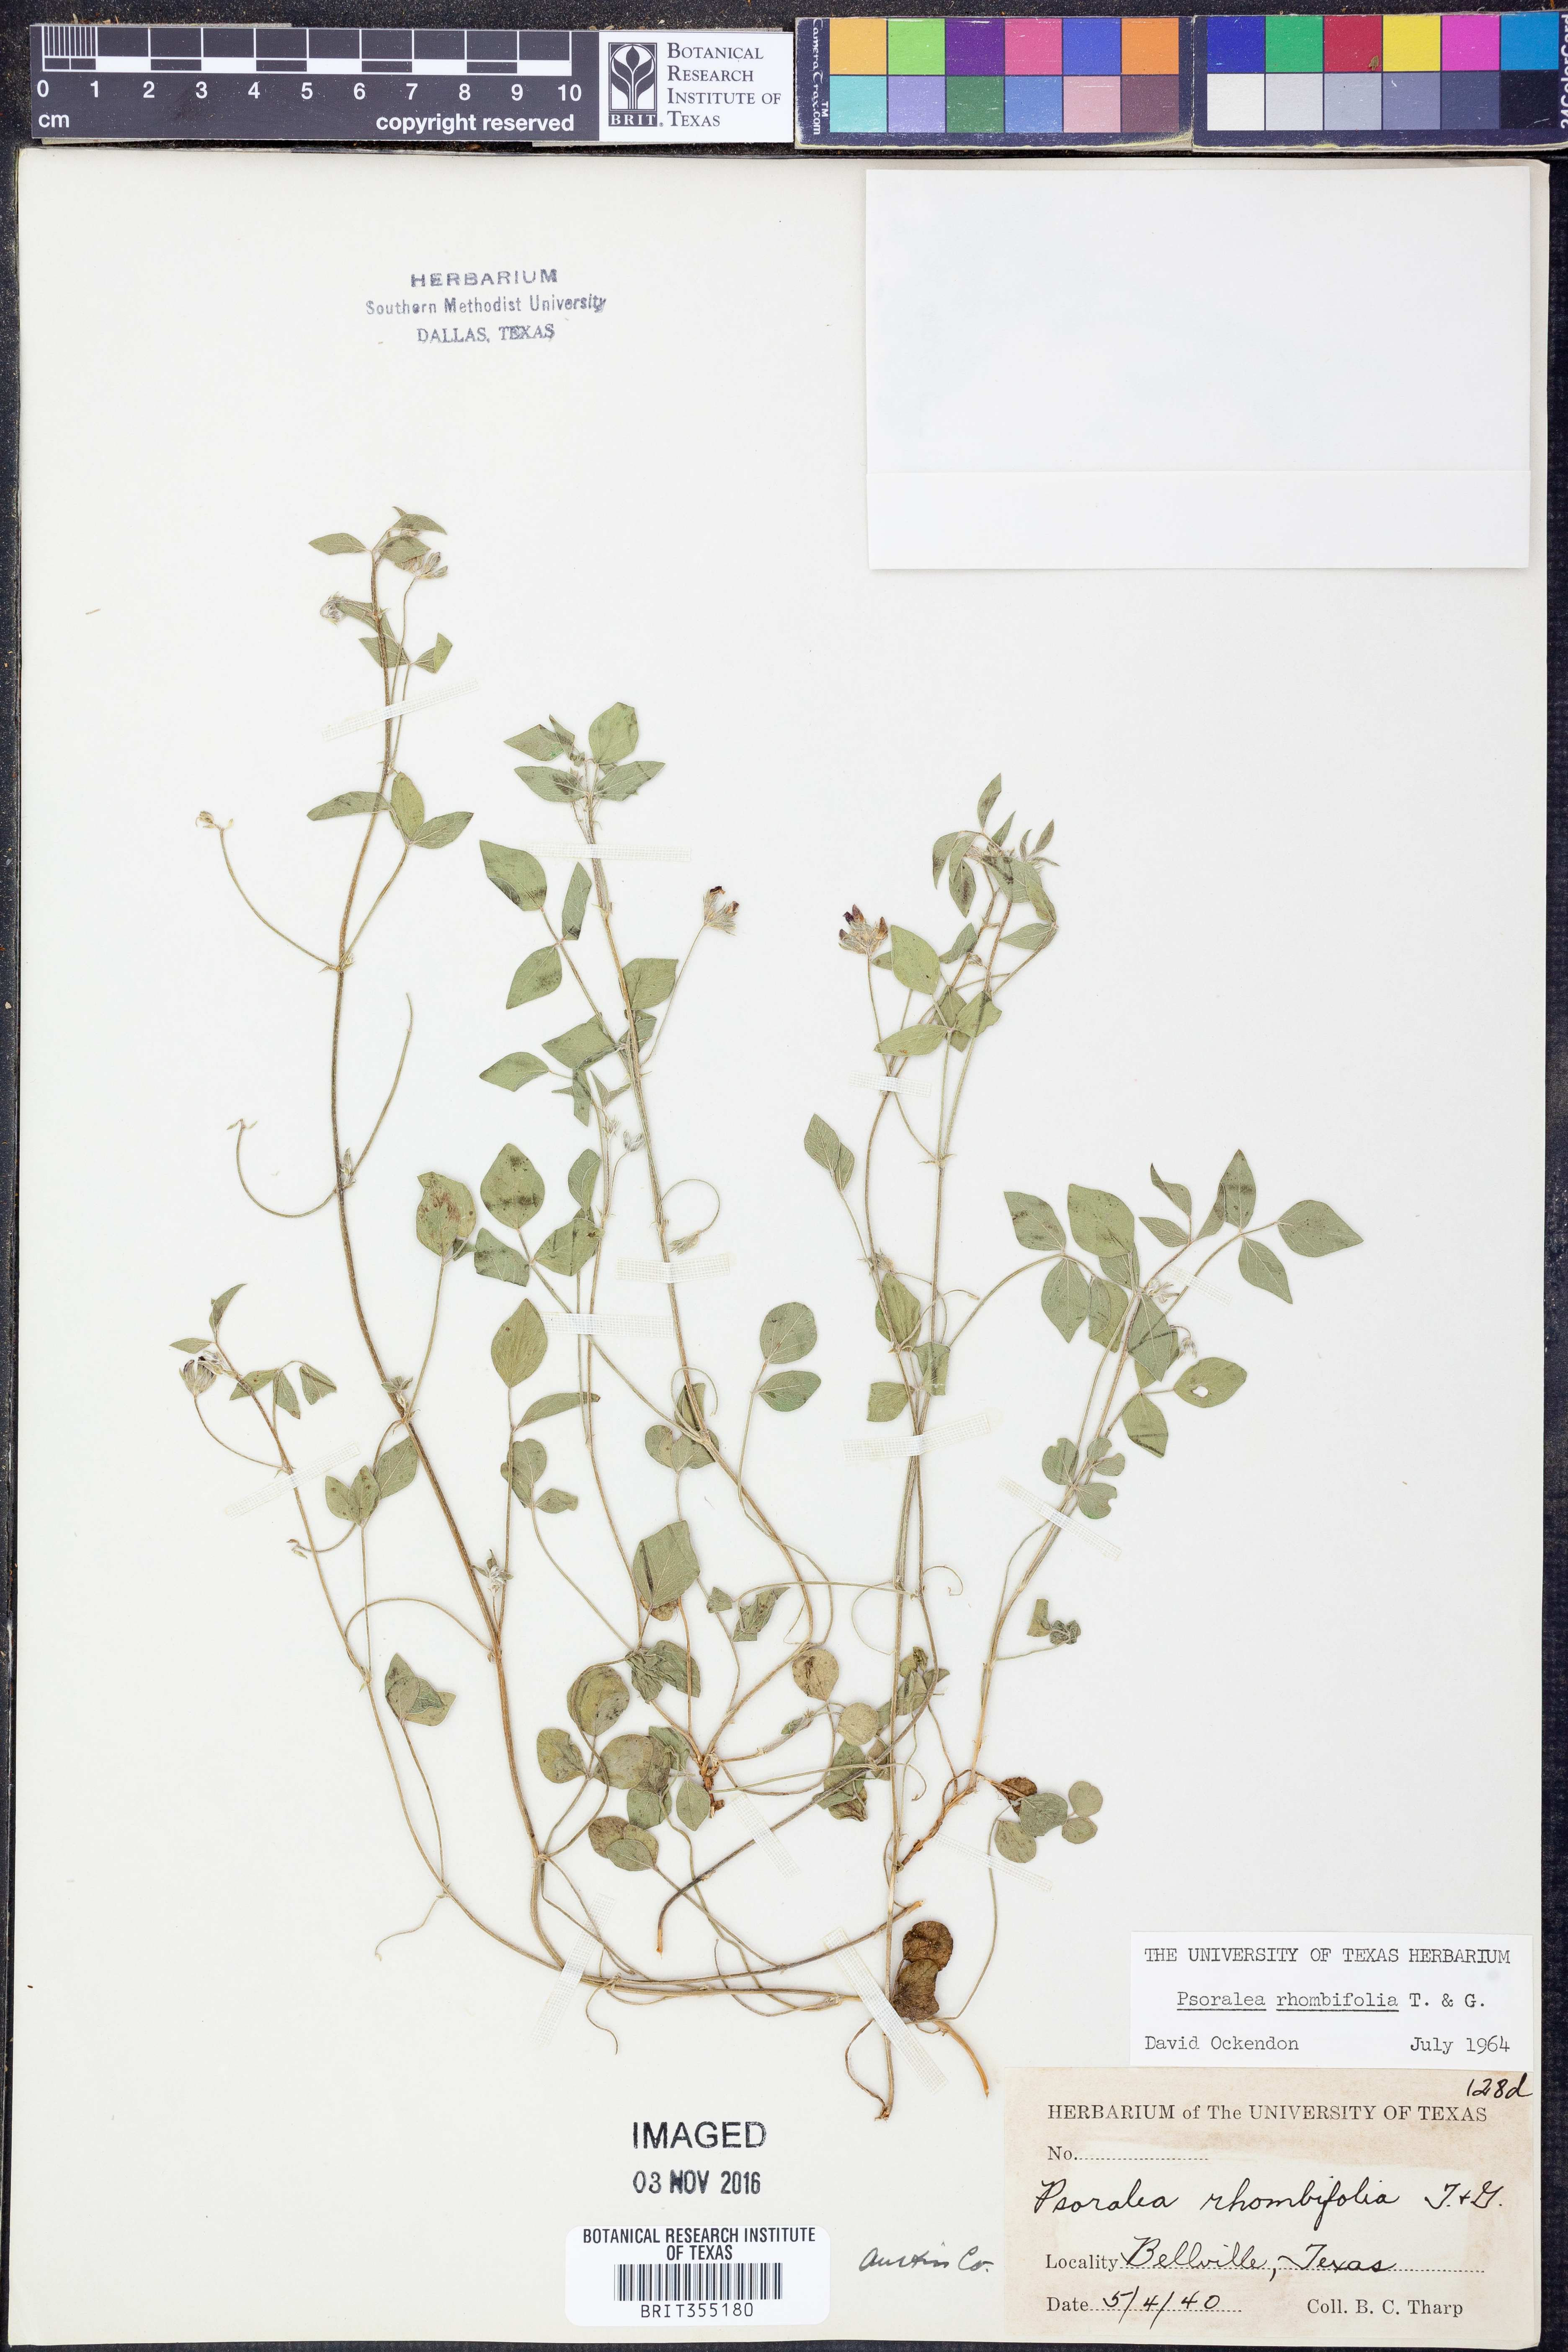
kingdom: Plantae
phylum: Tracheophyta
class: Magnoliopsida
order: Fabales
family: Fabaceae
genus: Pediomelum
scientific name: Pediomelum rhombifolium
